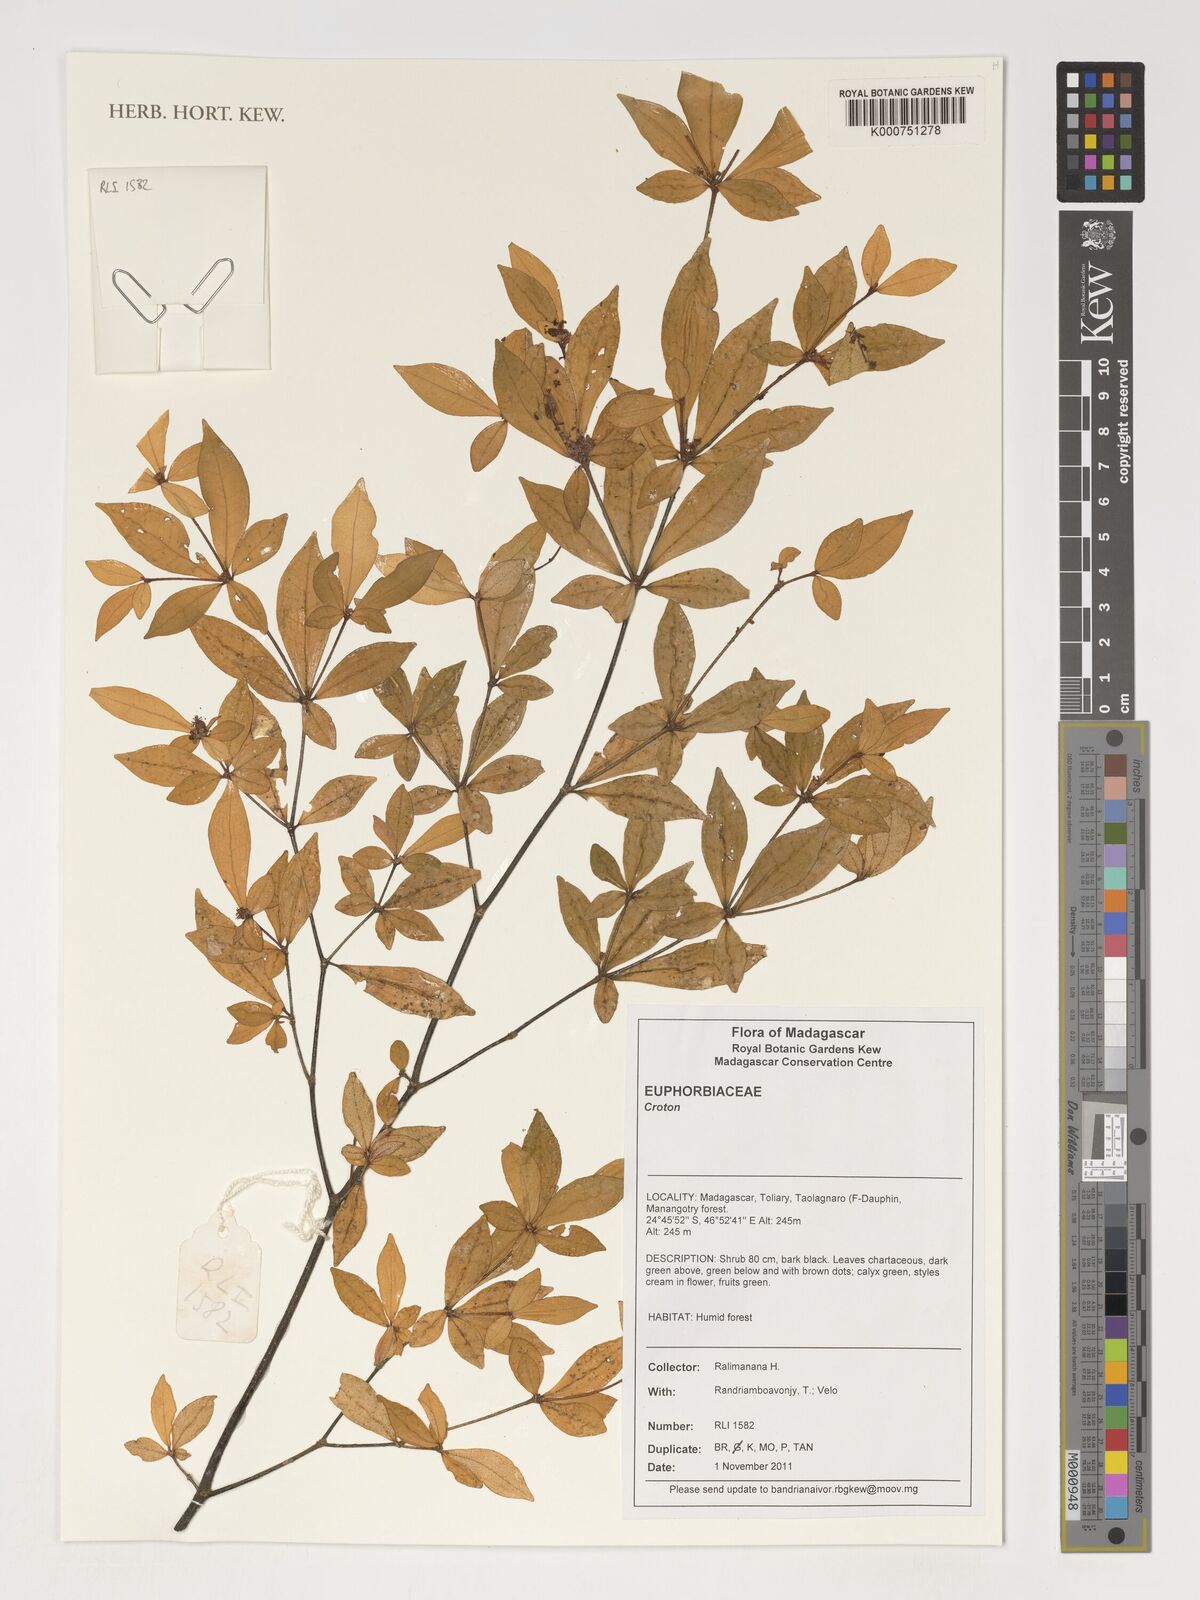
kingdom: Plantae
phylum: Tracheophyta
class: Magnoliopsida
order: Malpighiales
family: Euphorbiaceae
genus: Croton
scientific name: Croton
